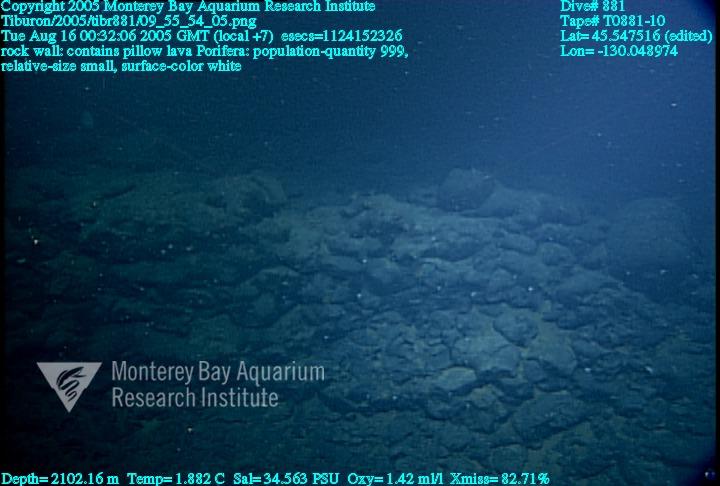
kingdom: Animalia
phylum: Porifera
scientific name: Porifera
